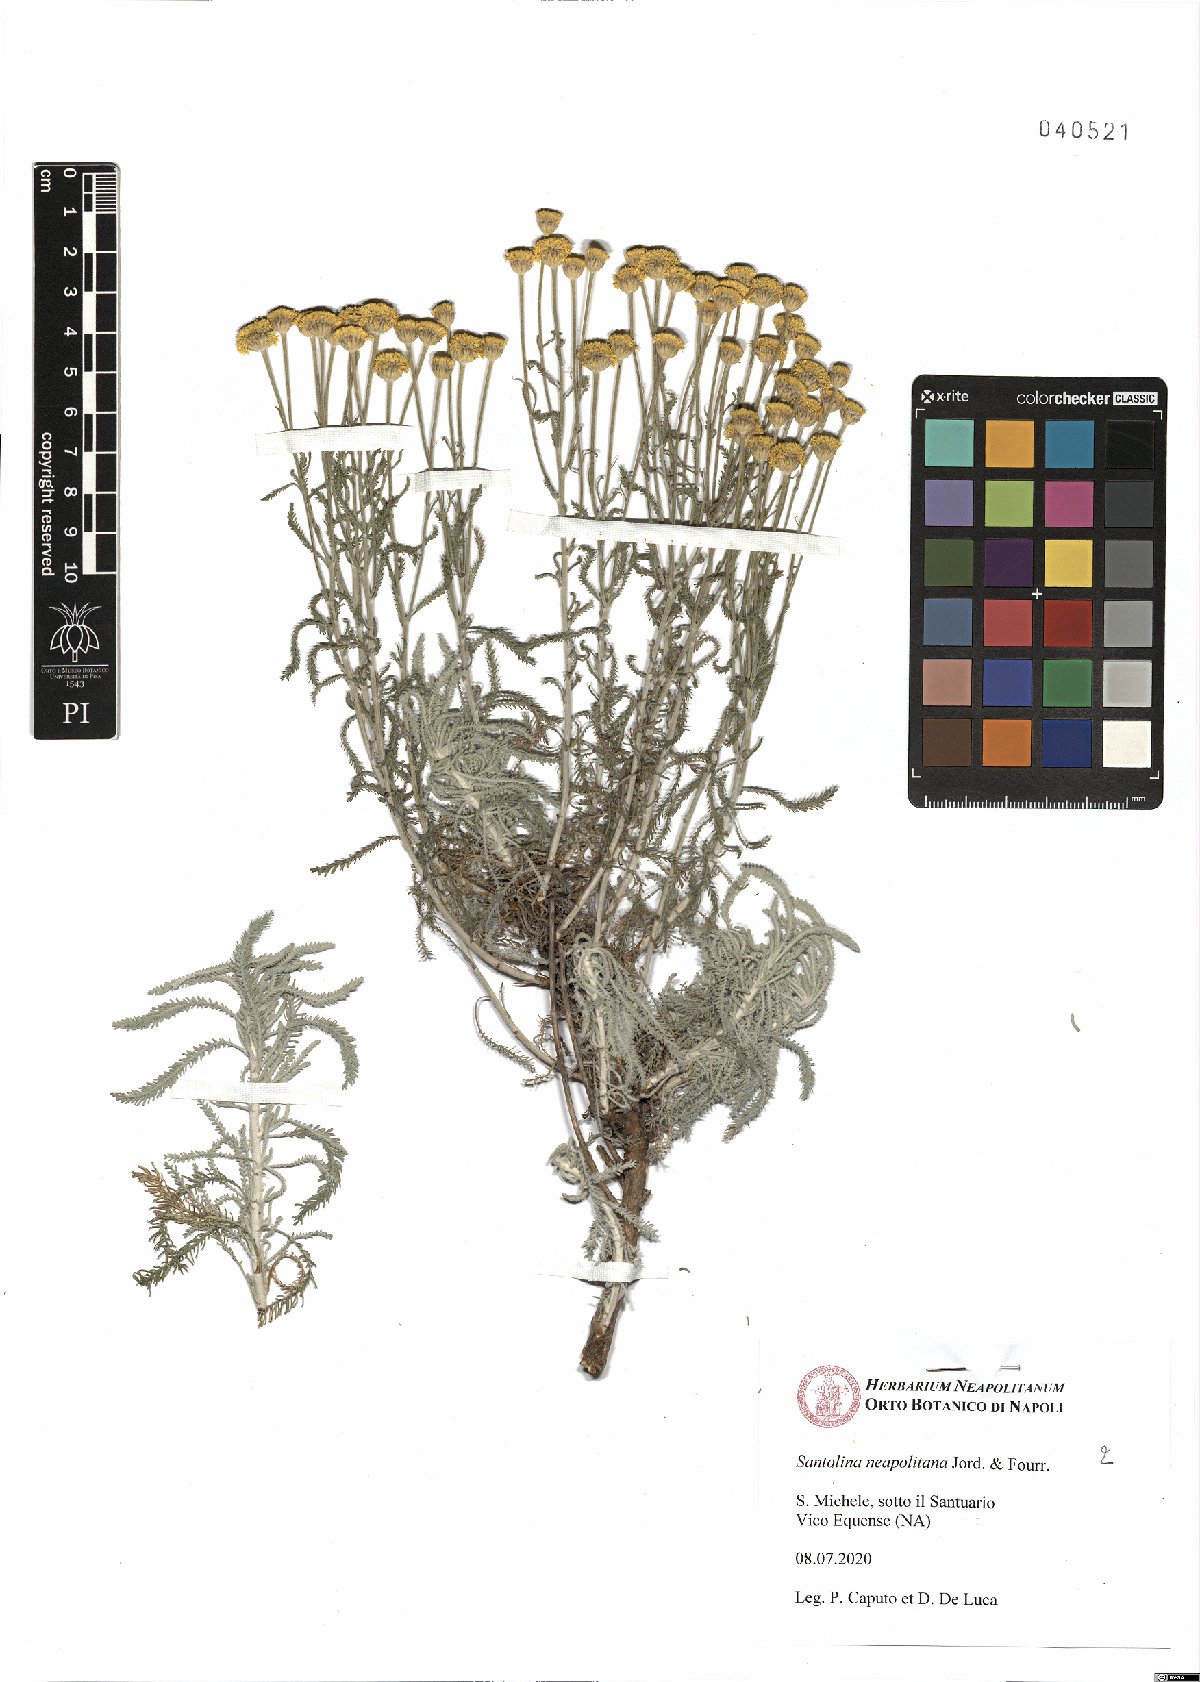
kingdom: Plantae
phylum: Tracheophyta
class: Magnoliopsida
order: Asterales
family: Asteraceae
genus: Santolina
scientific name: Santolina neapolitana
